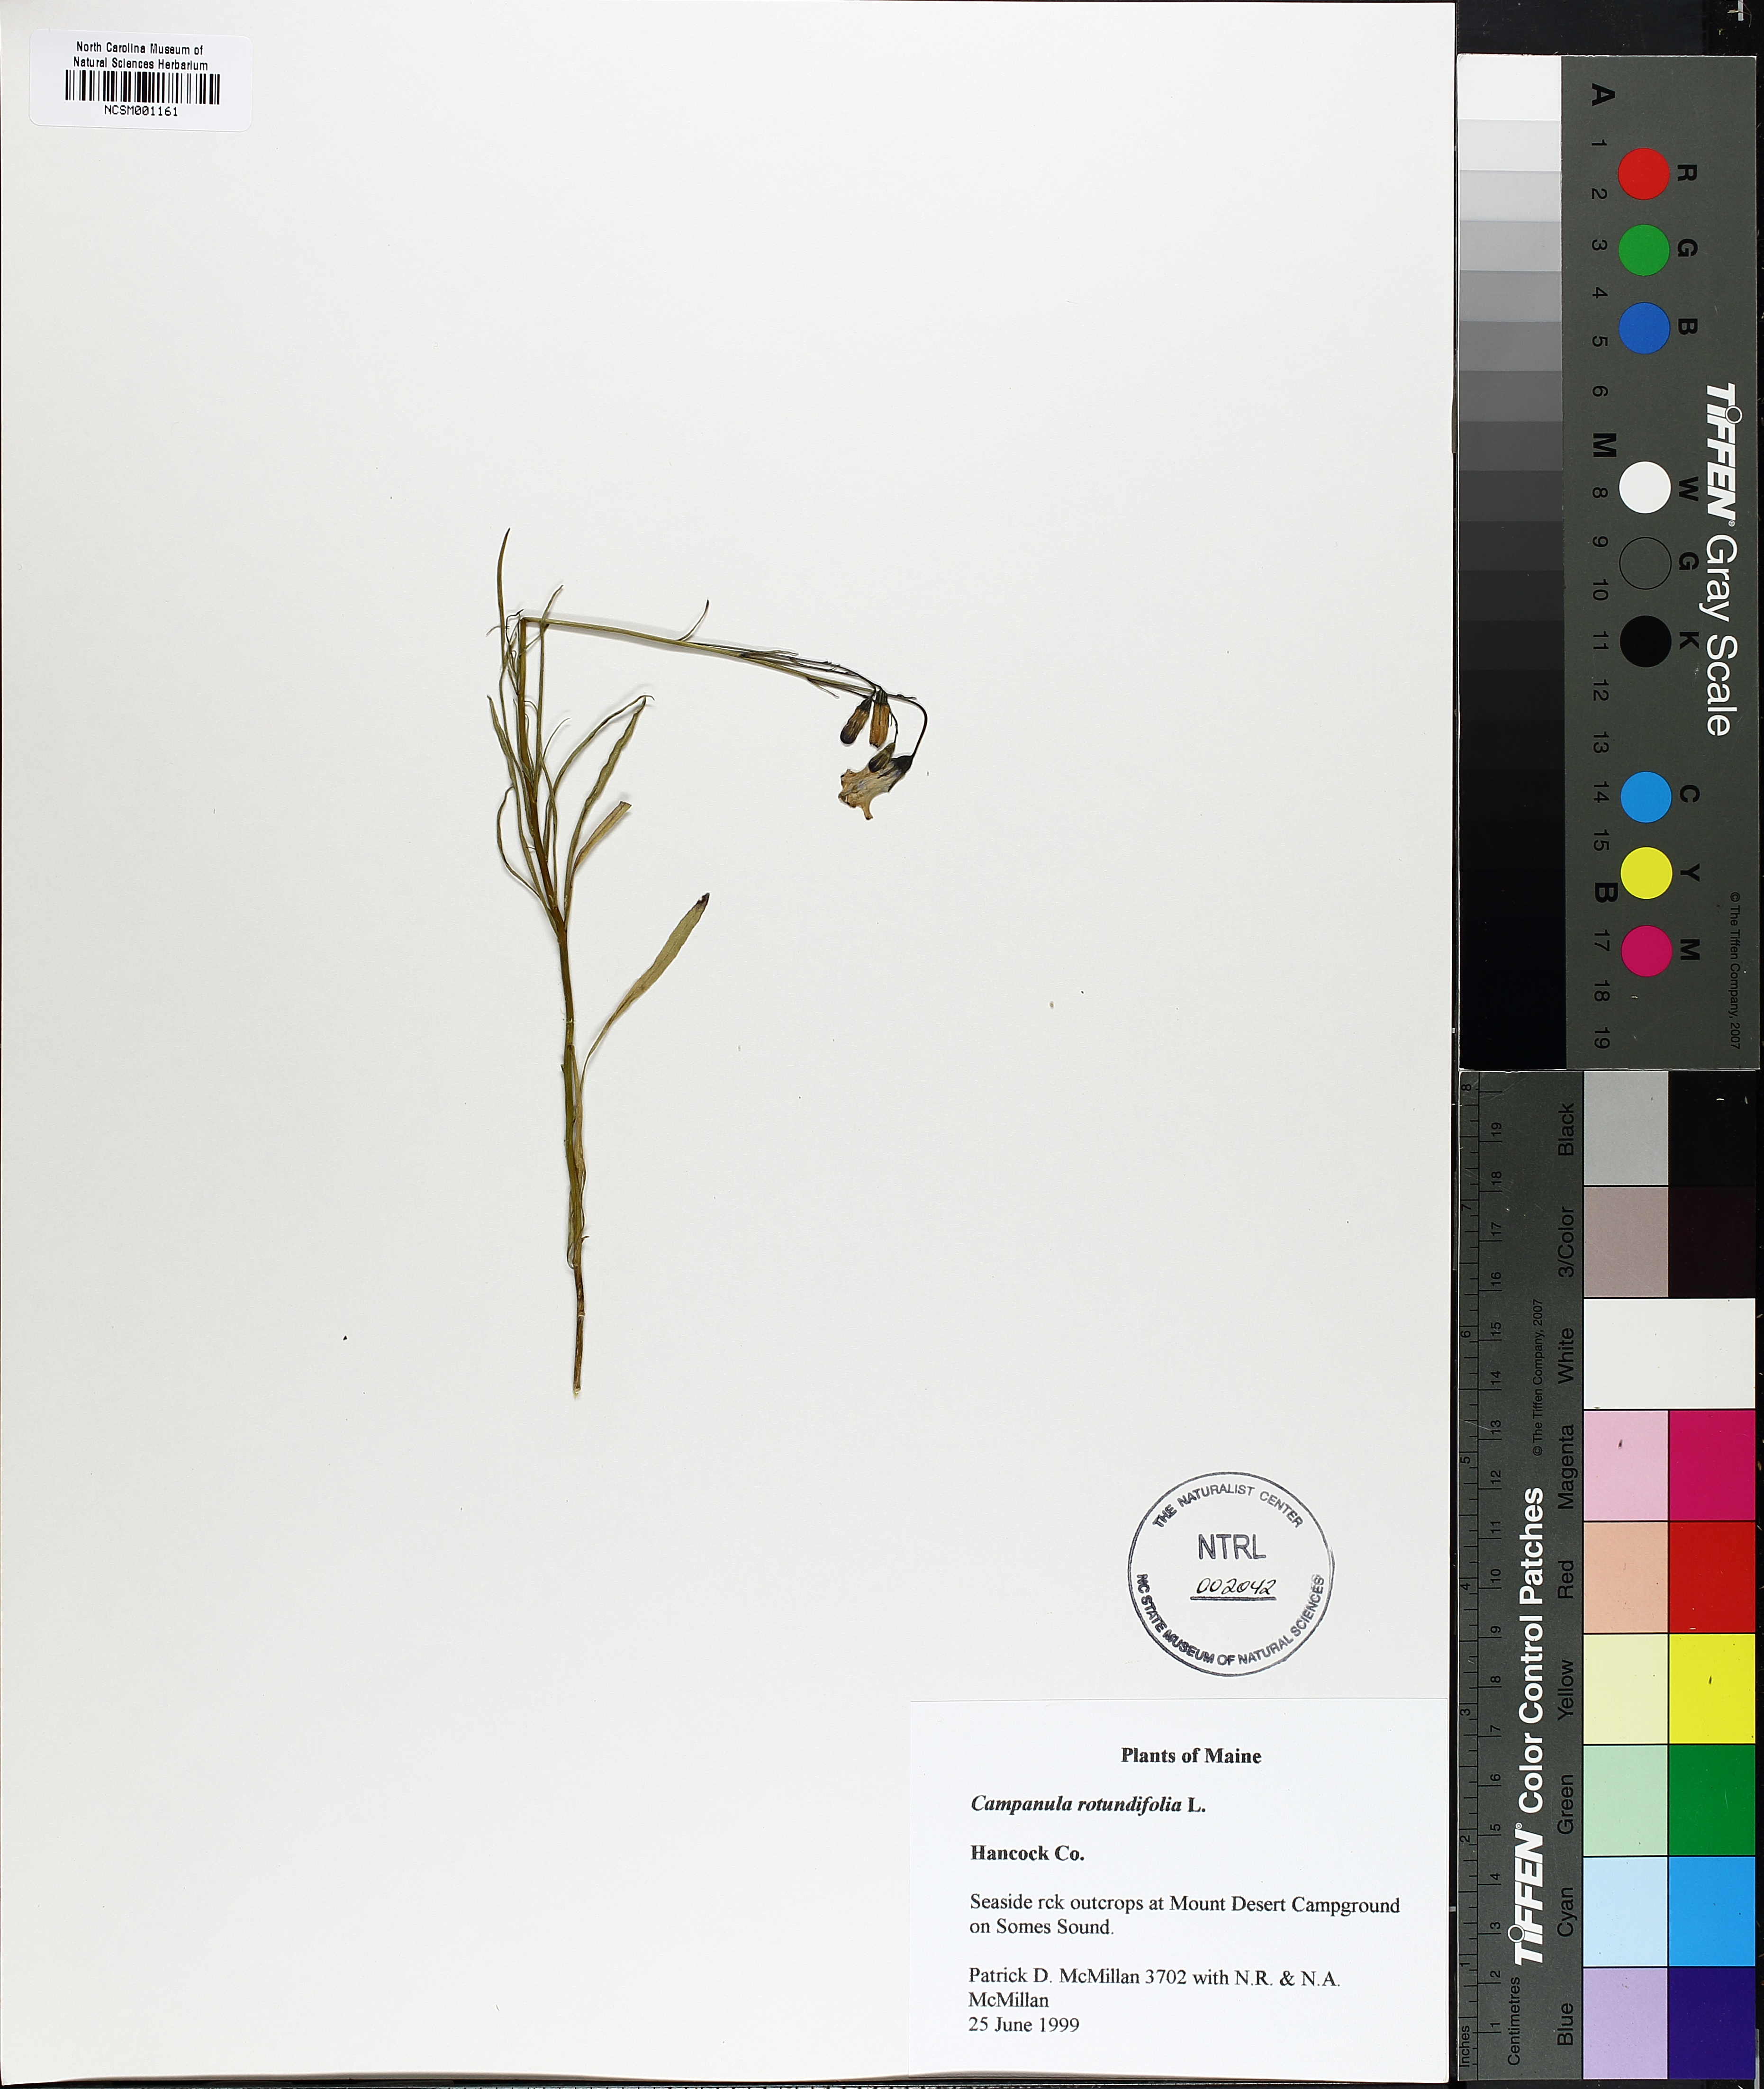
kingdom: Plantae
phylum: Tracheophyta
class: Magnoliopsida
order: Asterales
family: Campanulaceae
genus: Campanula
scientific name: Campanula rotundifolia
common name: Harebell
